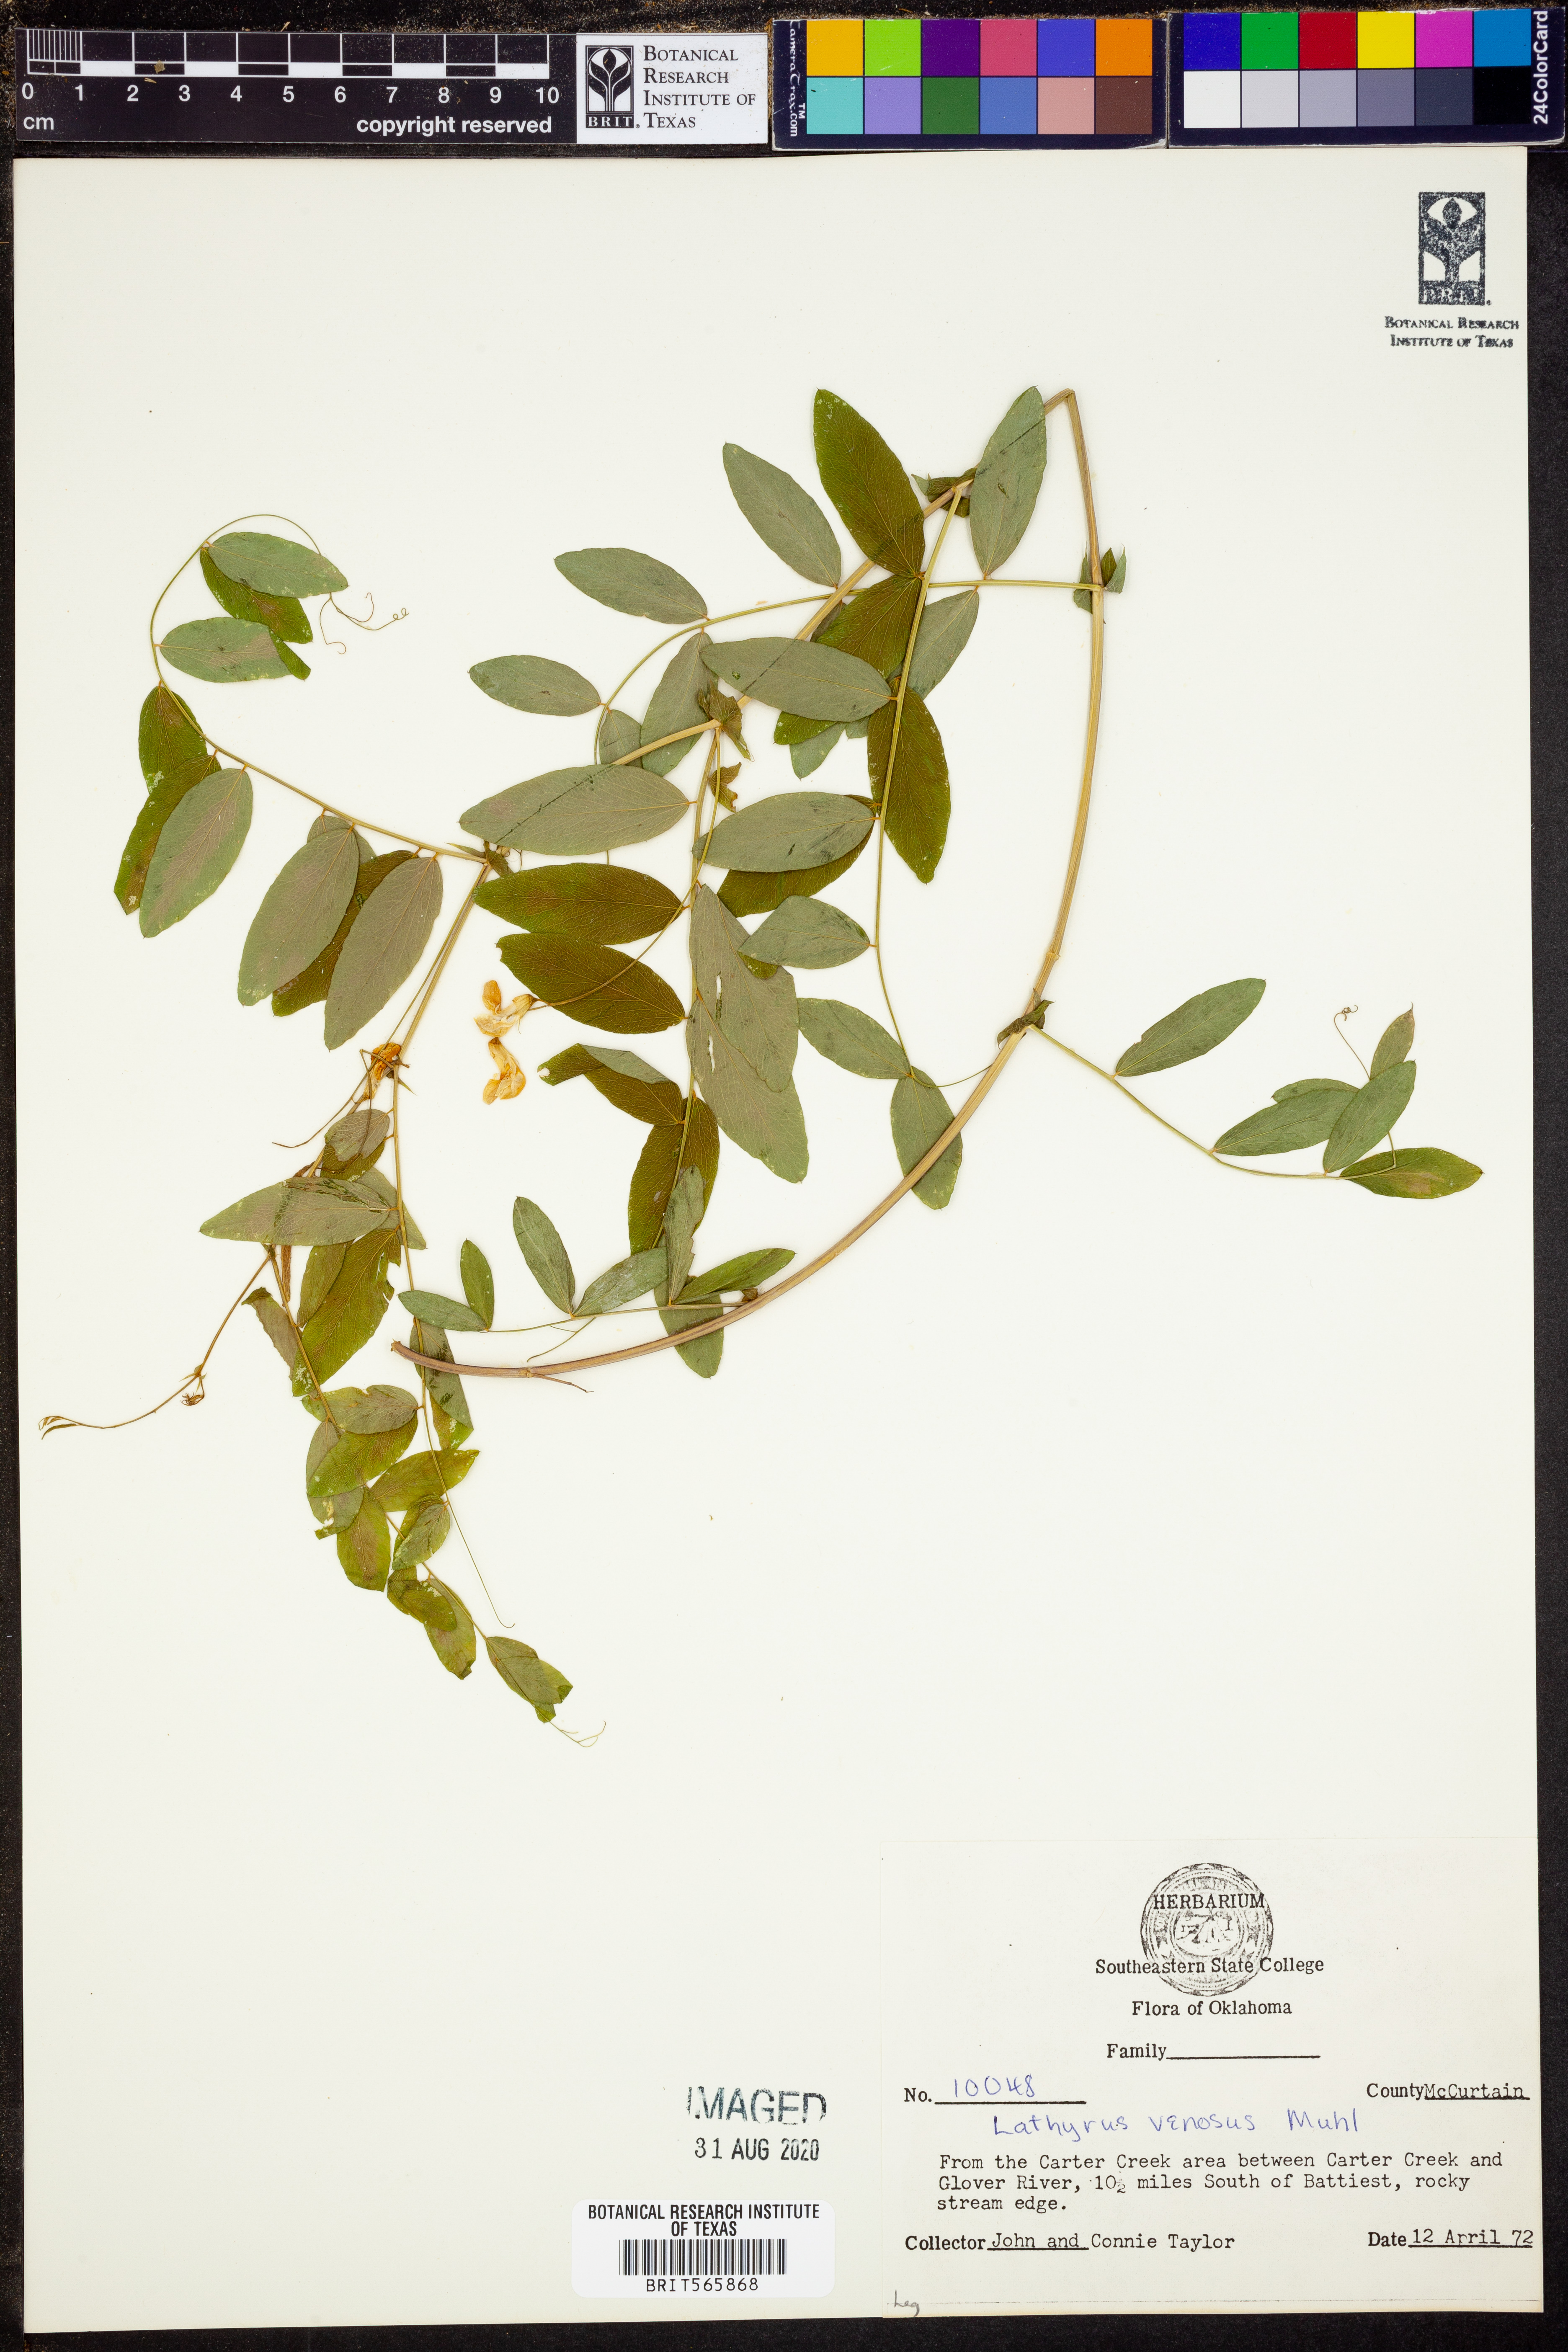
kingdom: Plantae
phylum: Tracheophyta
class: Magnoliopsida
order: Fabales
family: Fabaceae
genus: Lathyrus
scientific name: Lathyrus venosus
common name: Forest-pea
